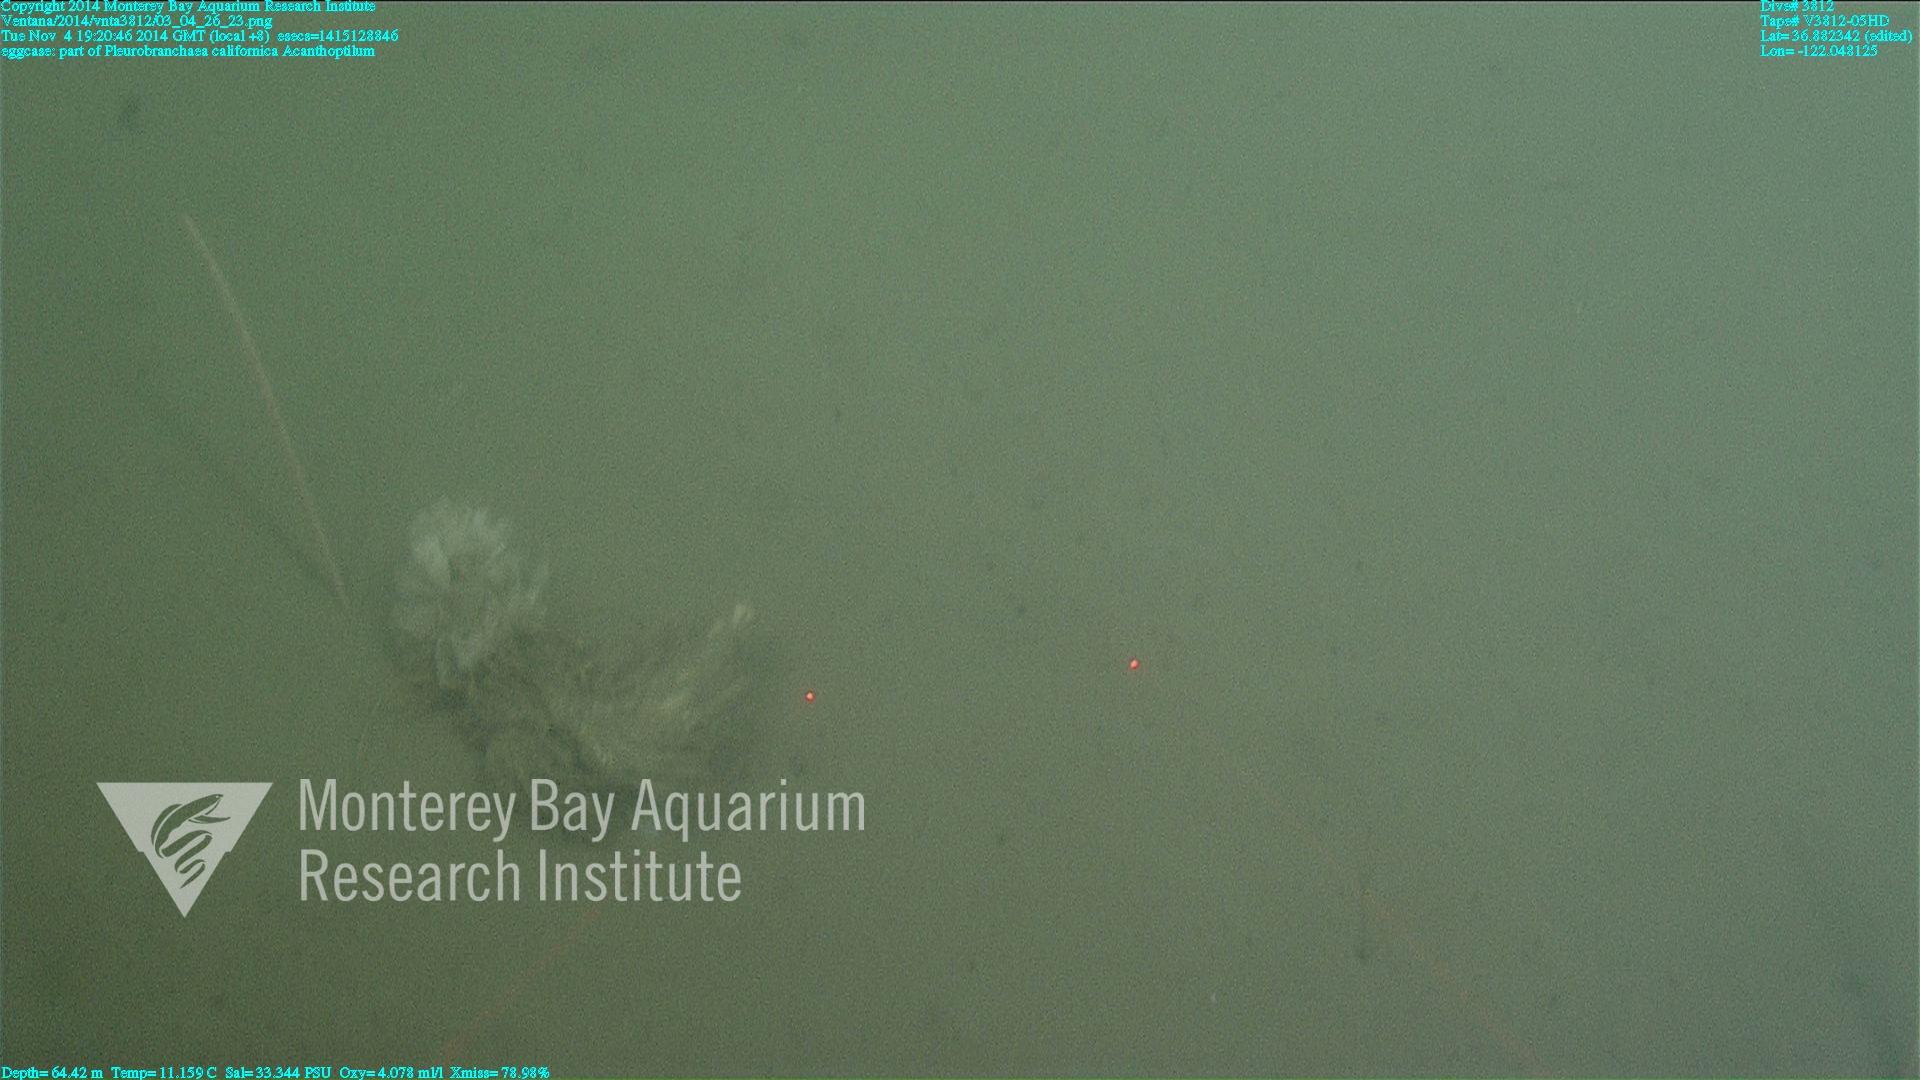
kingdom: Animalia
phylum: Cnidaria
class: Anthozoa
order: Scleralcyonacea
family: Virgulariidae
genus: Acanthoptilum
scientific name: Acanthoptilum
